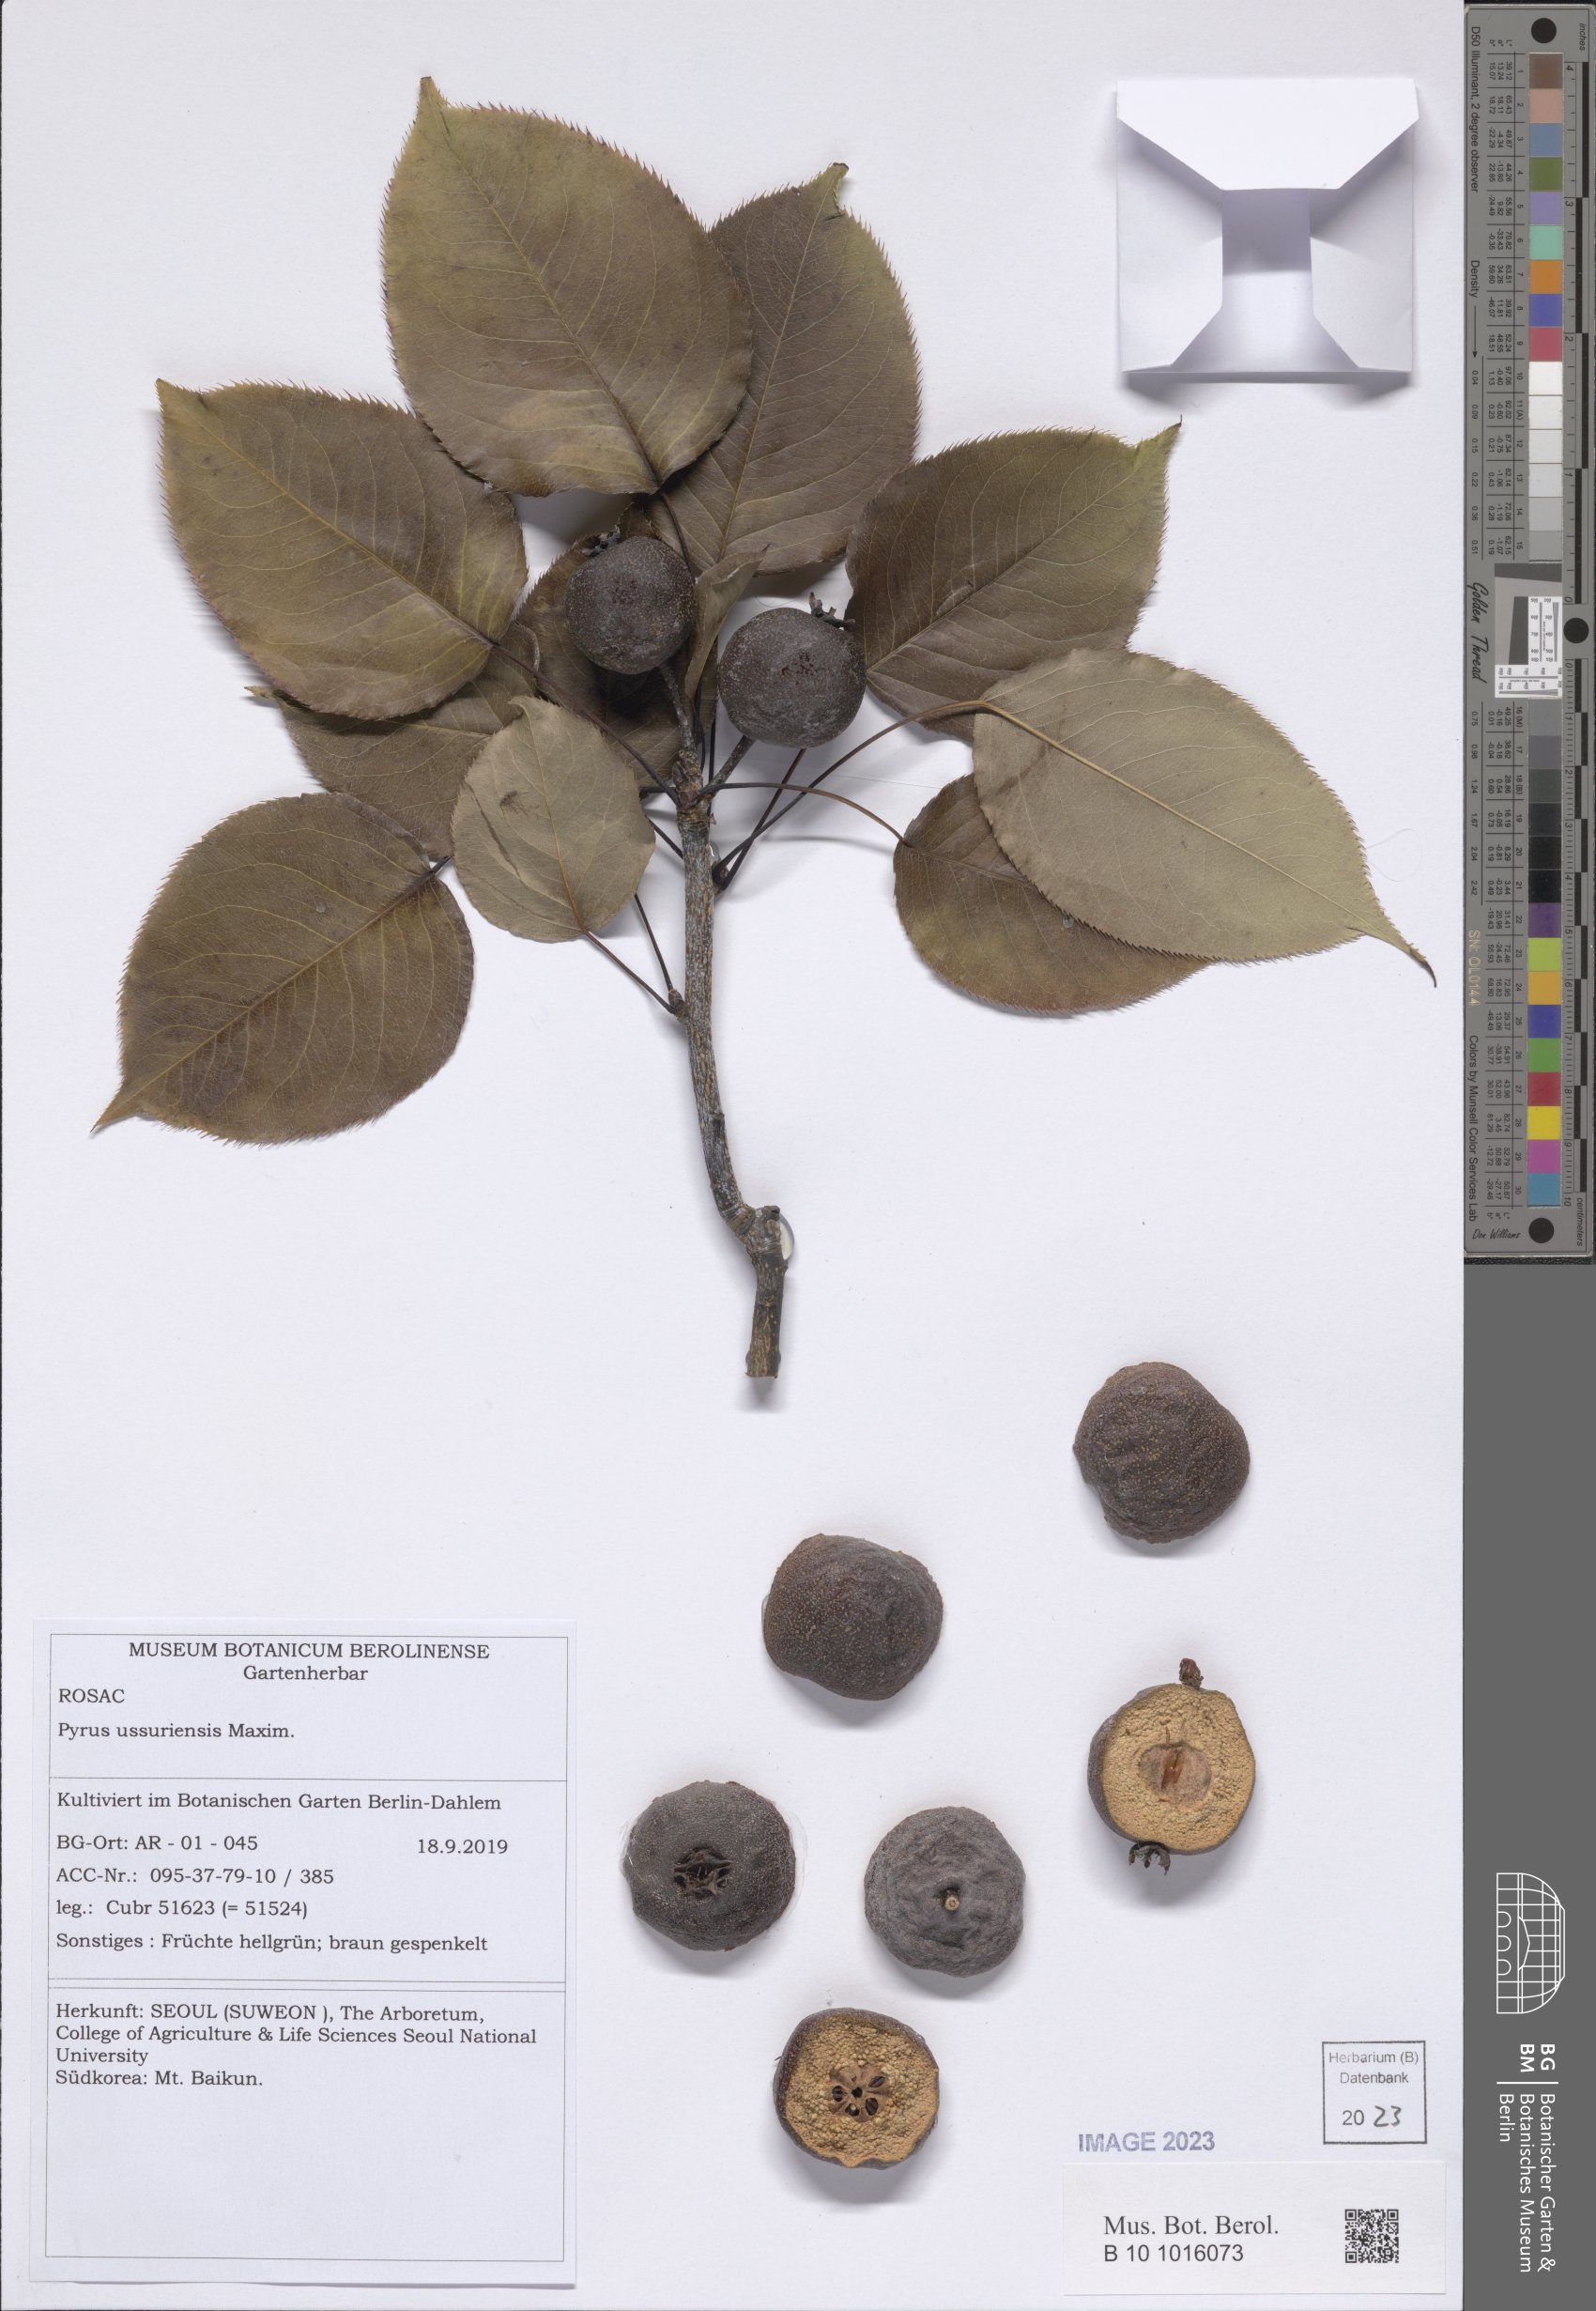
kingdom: Plantae
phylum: Tracheophyta
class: Magnoliopsida
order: Rosales
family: Rosaceae
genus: Pyrus
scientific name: Pyrus ussuriensis
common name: Harbin pear
